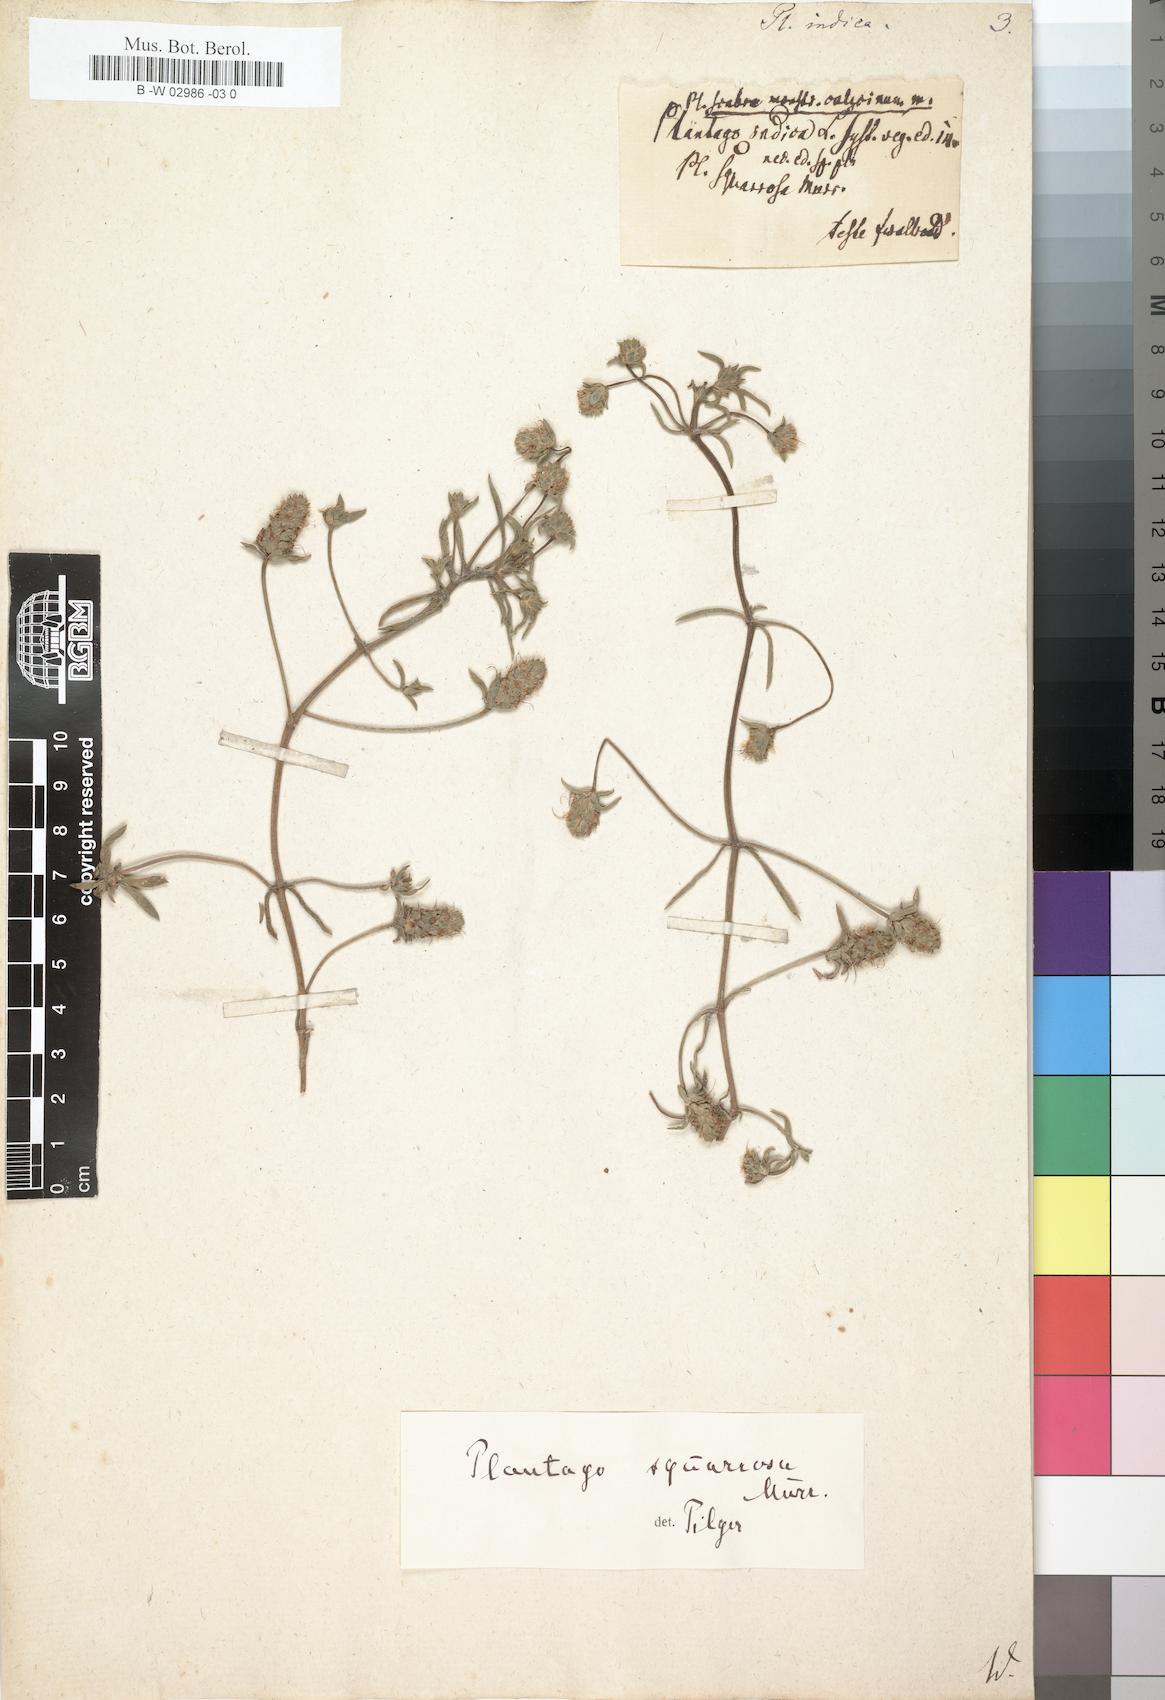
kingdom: Plantae
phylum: Tracheophyta
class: Magnoliopsida
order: Lamiales
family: Plantaginaceae
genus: Plantago
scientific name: Plantago arenaria
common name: Branched plantain
